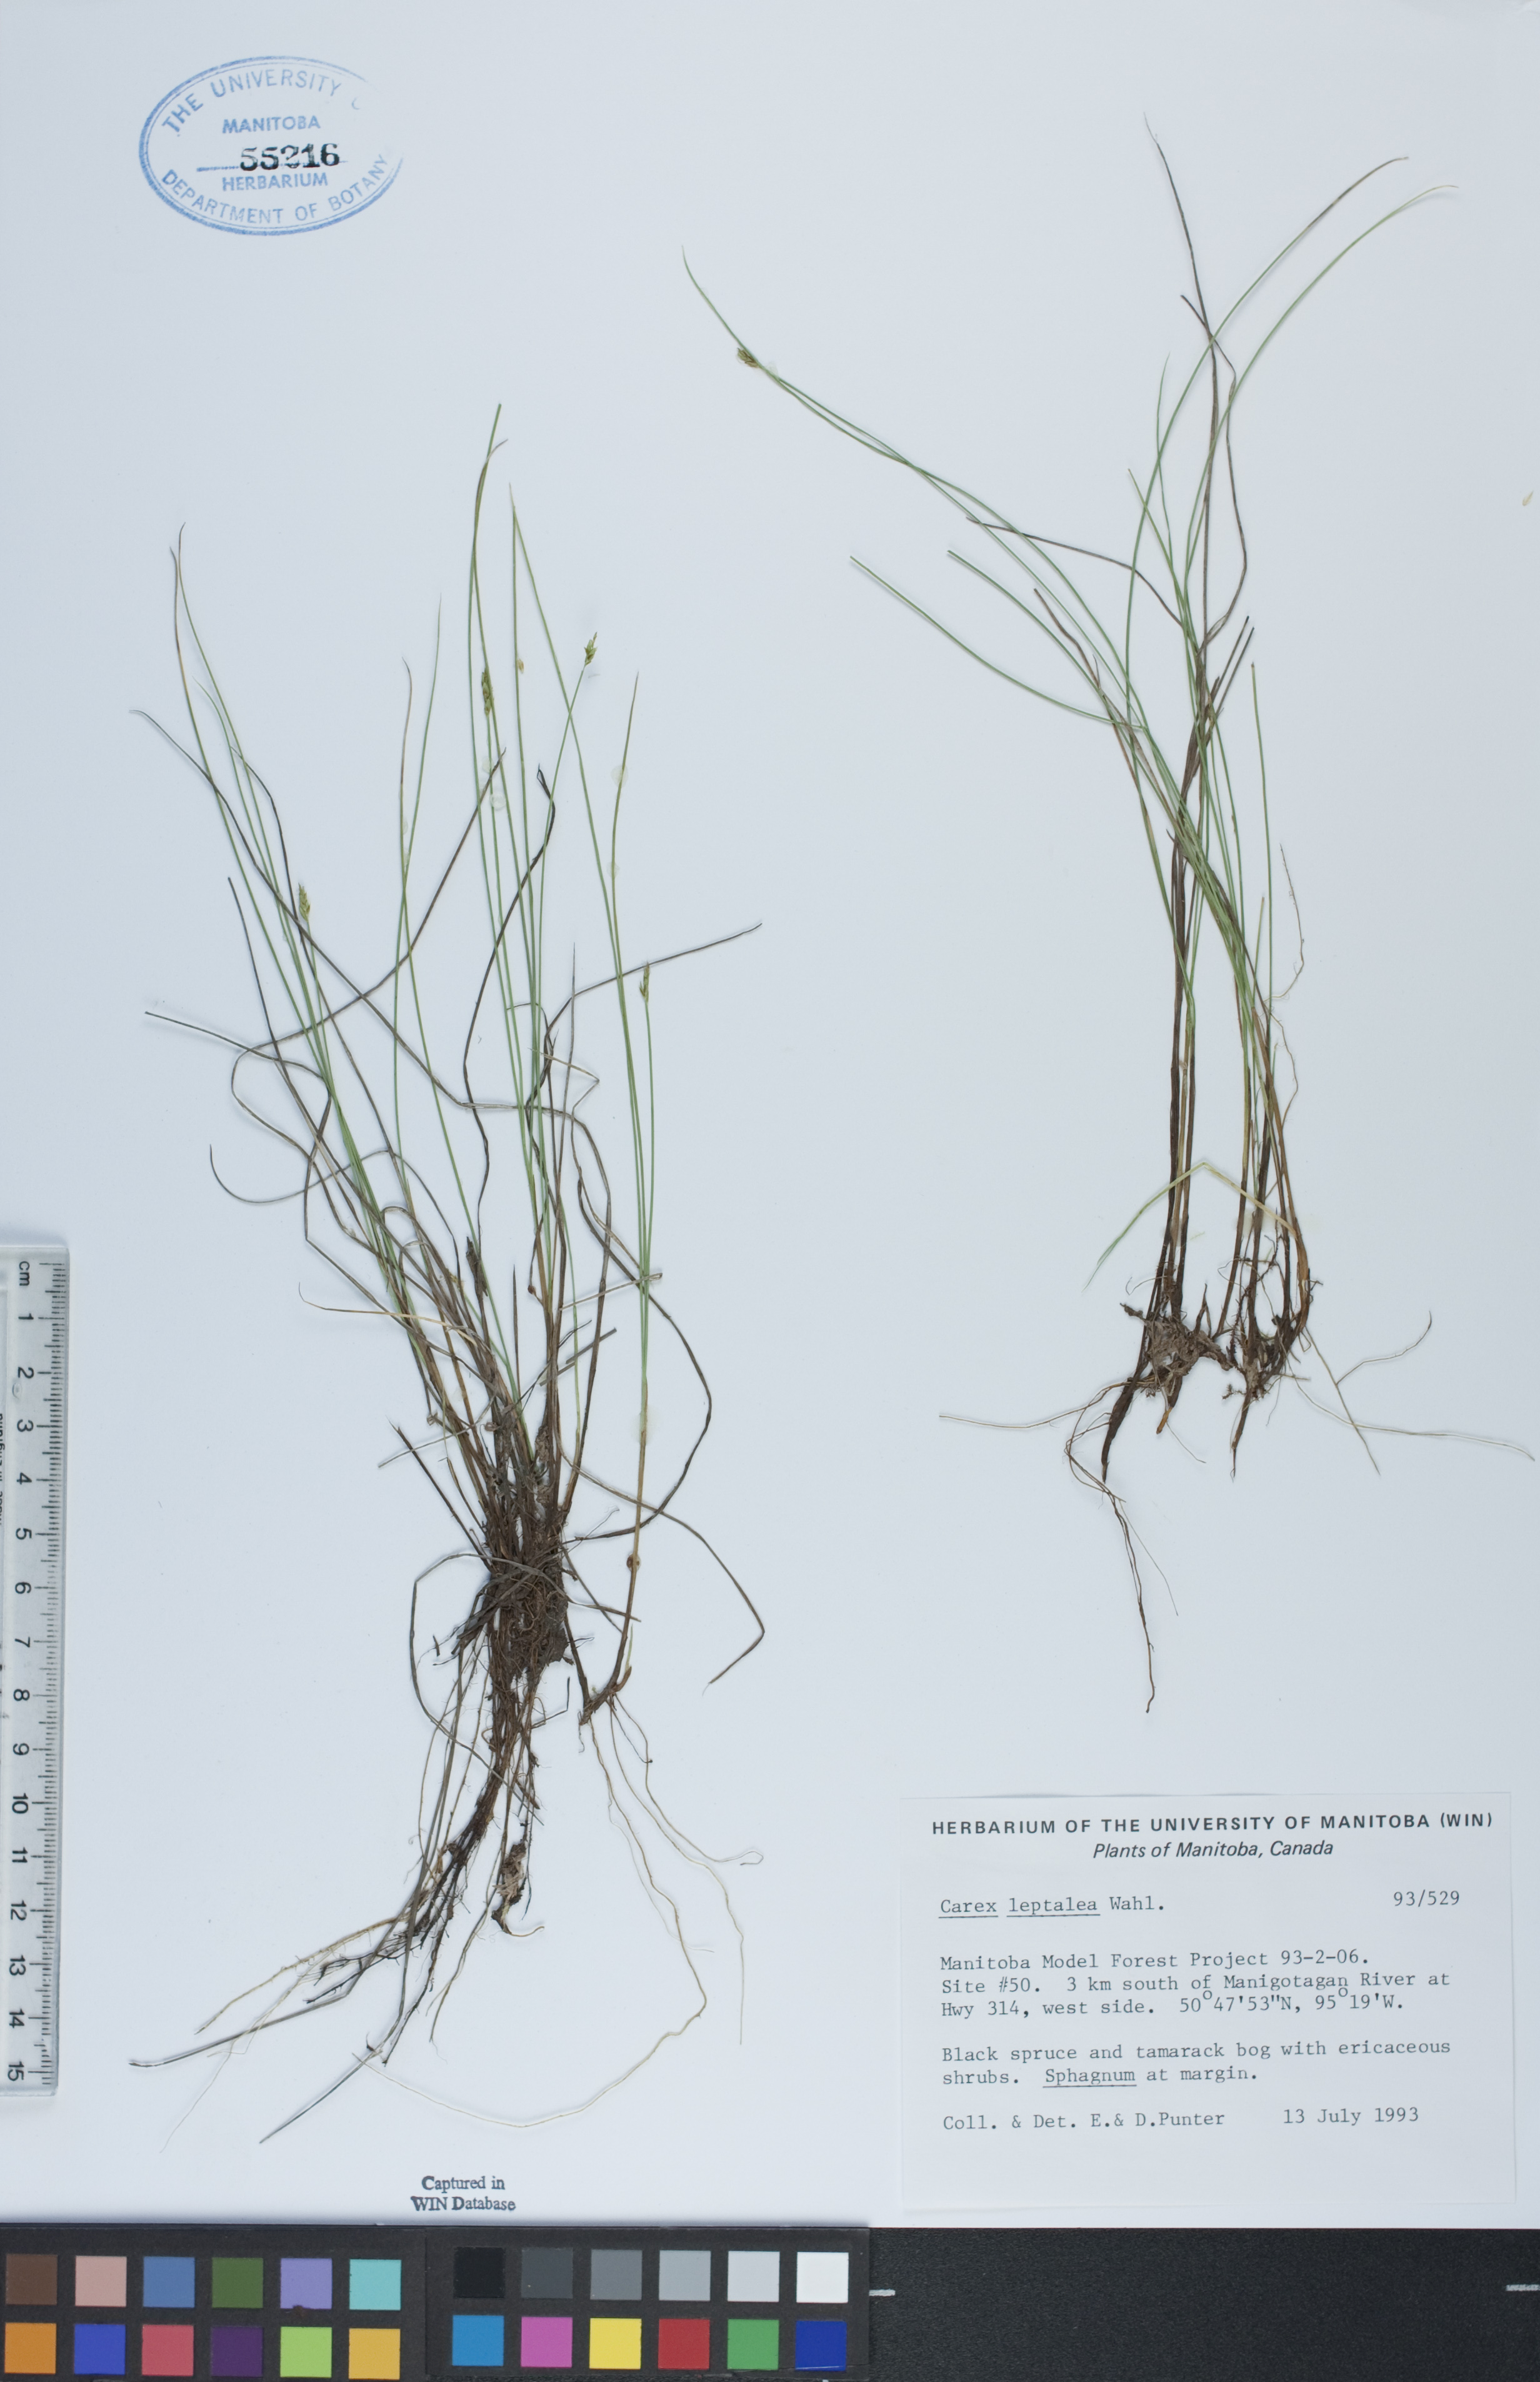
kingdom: Plantae
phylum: Tracheophyta
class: Liliopsida
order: Poales
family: Cyperaceae
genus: Carex
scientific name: Carex leptalea
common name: Bristly-stalked sedge
